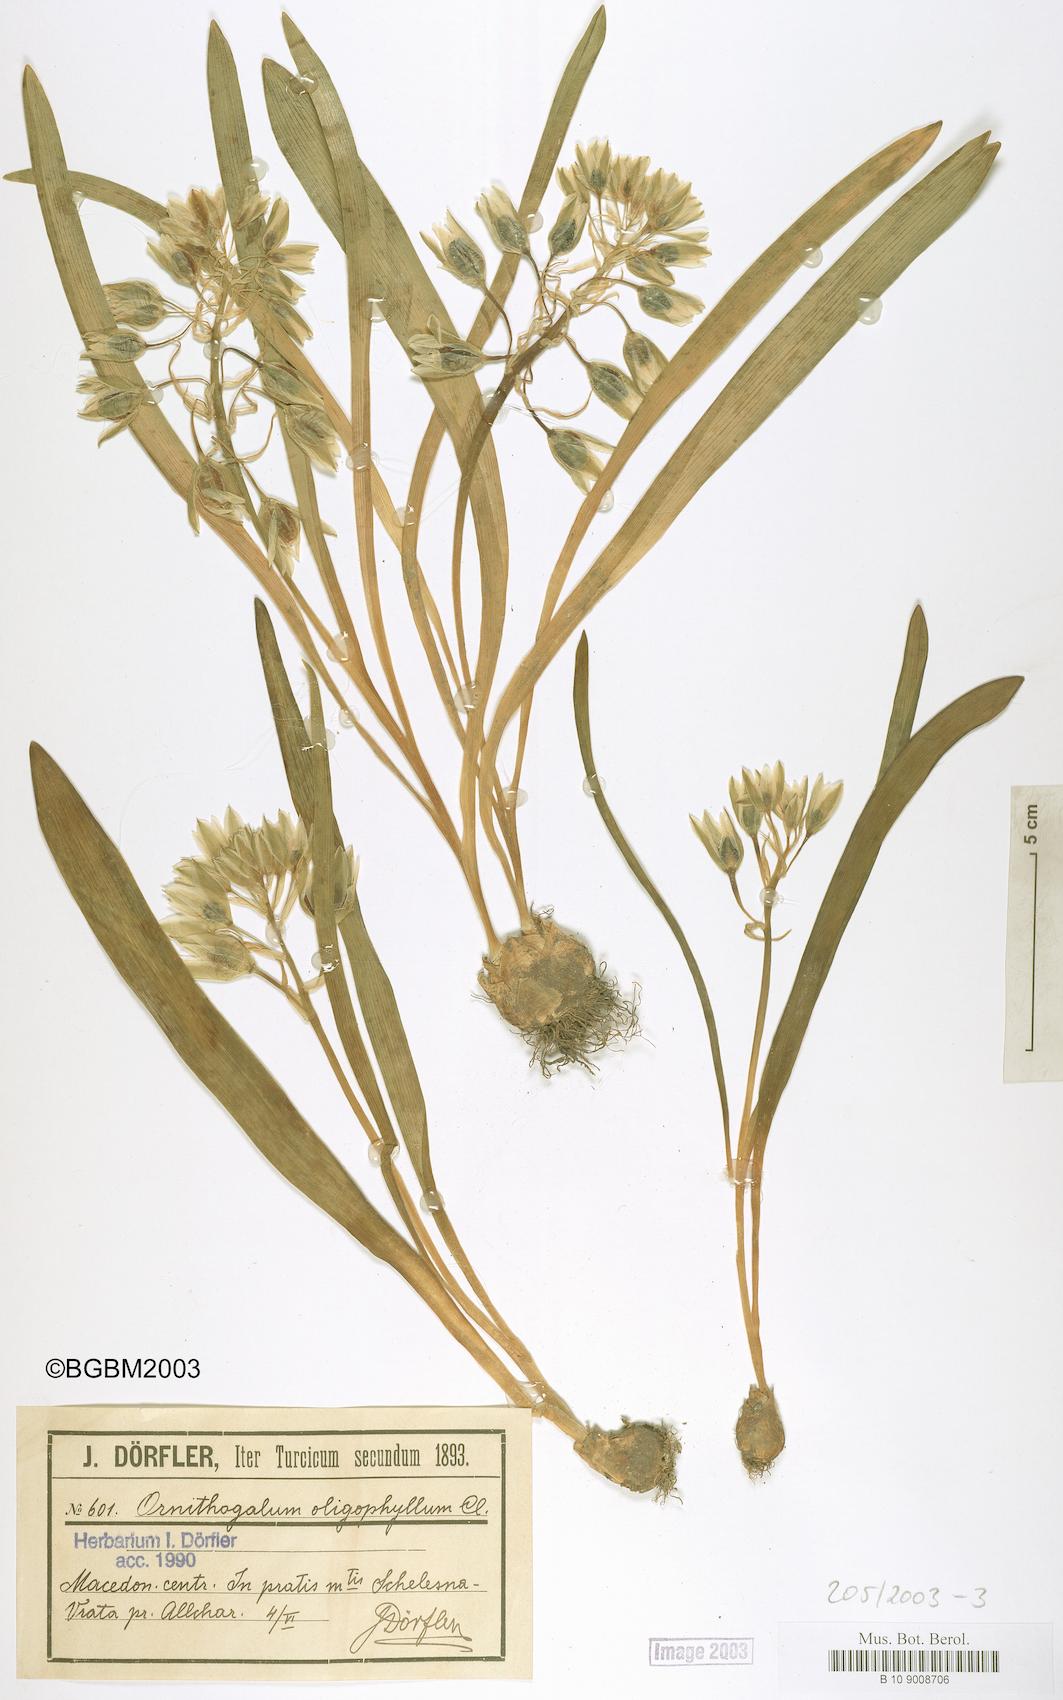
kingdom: Plantae
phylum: Tracheophyta
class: Liliopsida
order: Asparagales
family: Asparagaceae
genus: Ornithogalum
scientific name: Ornithogalum oligophyllum
